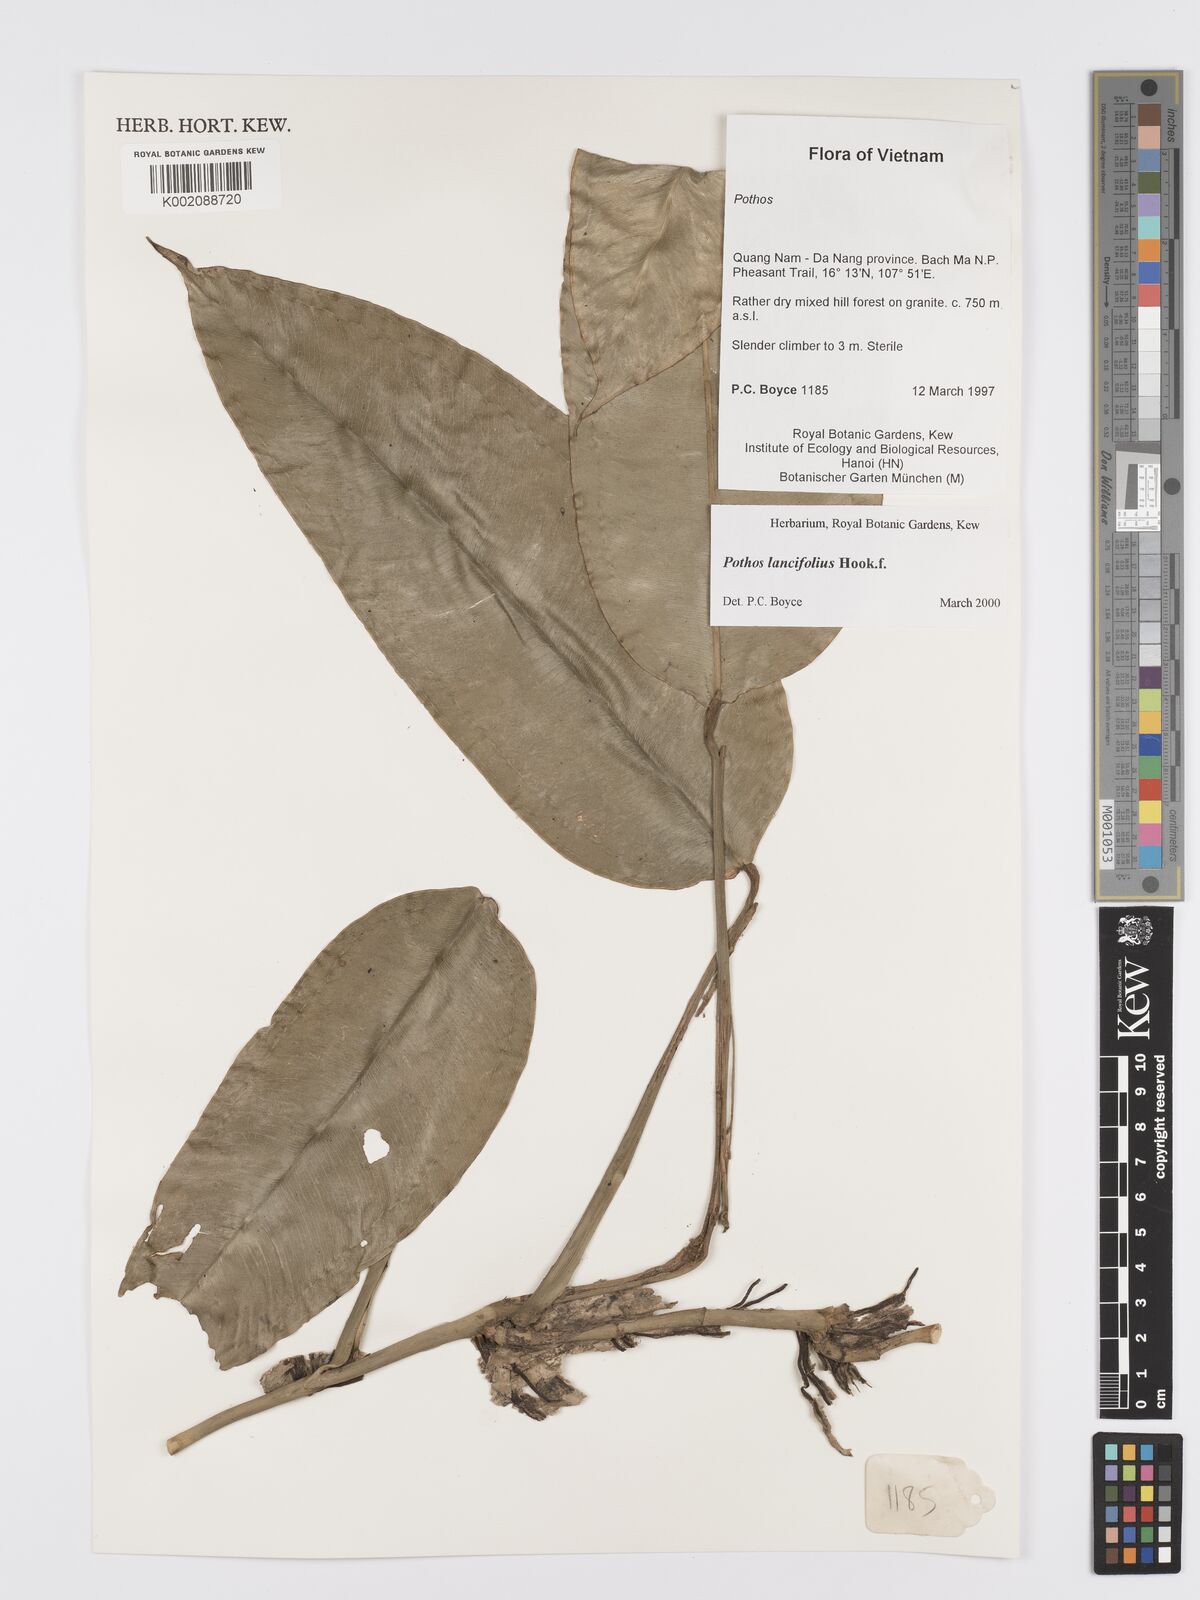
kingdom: Plantae
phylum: Tracheophyta
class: Liliopsida
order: Alismatales
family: Araceae
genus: Pothos
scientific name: Pothos lancifolius
